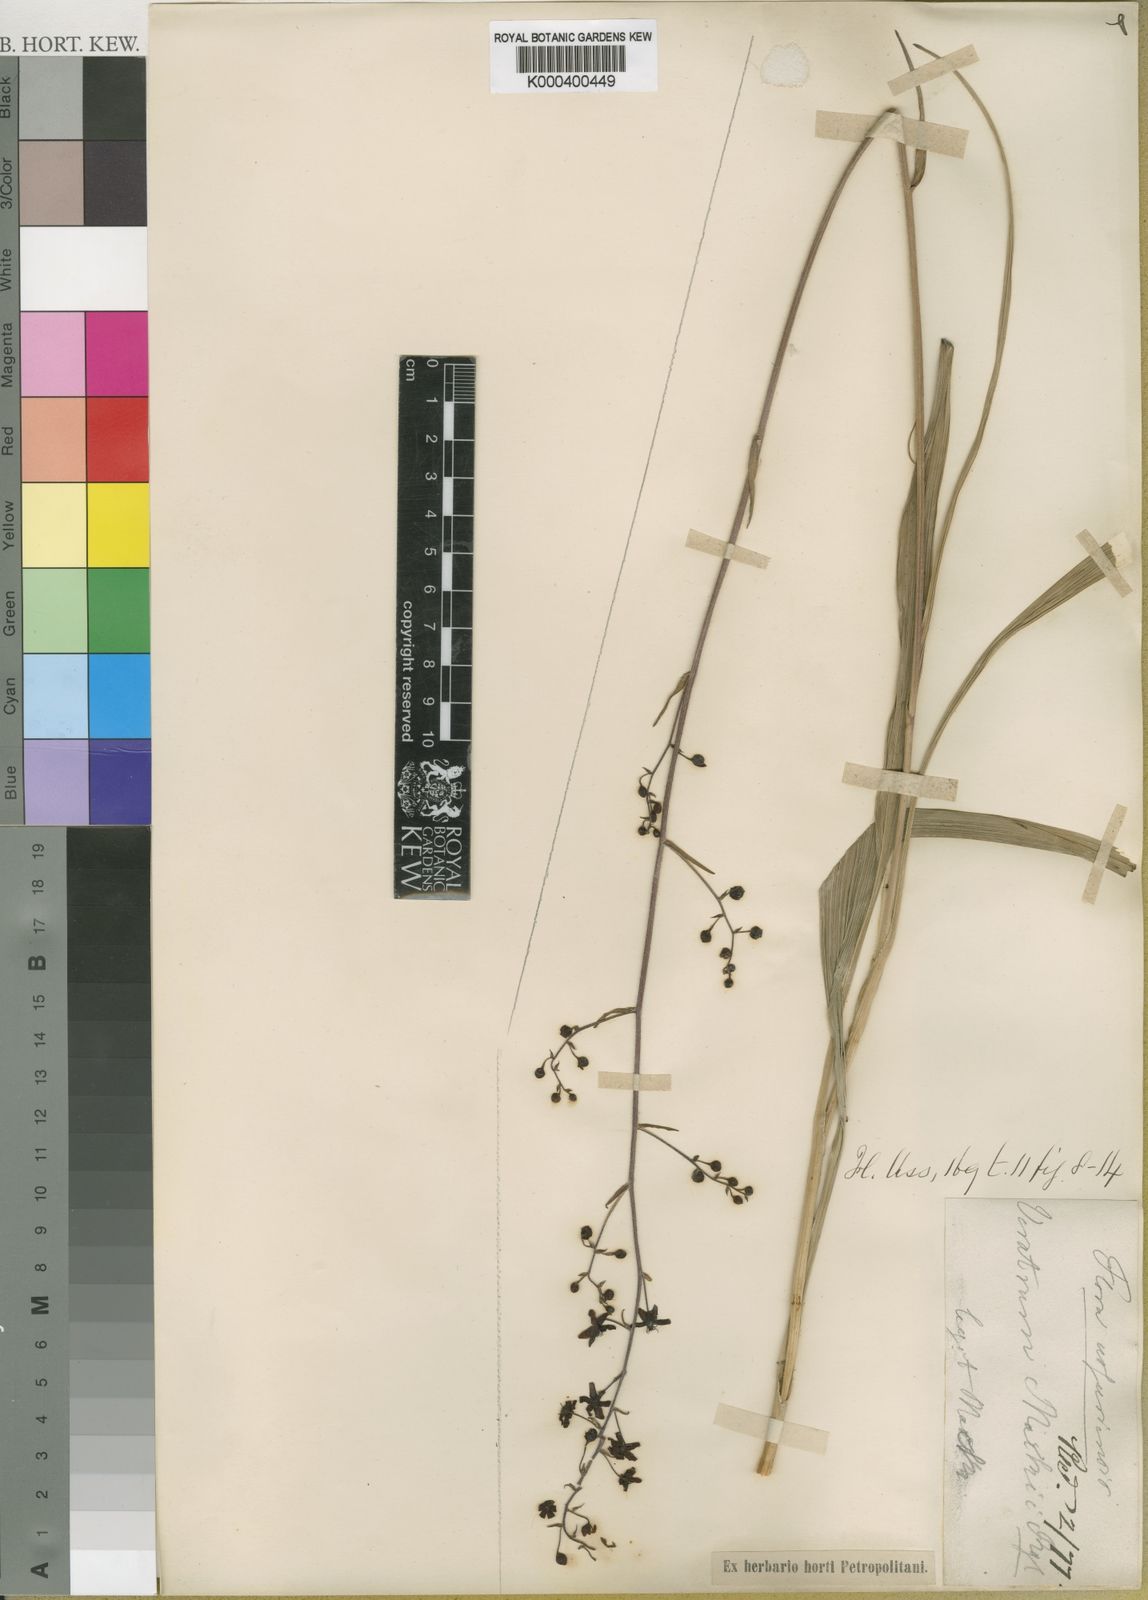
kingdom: Plantae
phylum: Tracheophyta
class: Liliopsida
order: Liliales
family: Melanthiaceae
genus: Veratrum
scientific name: Veratrum maackii
